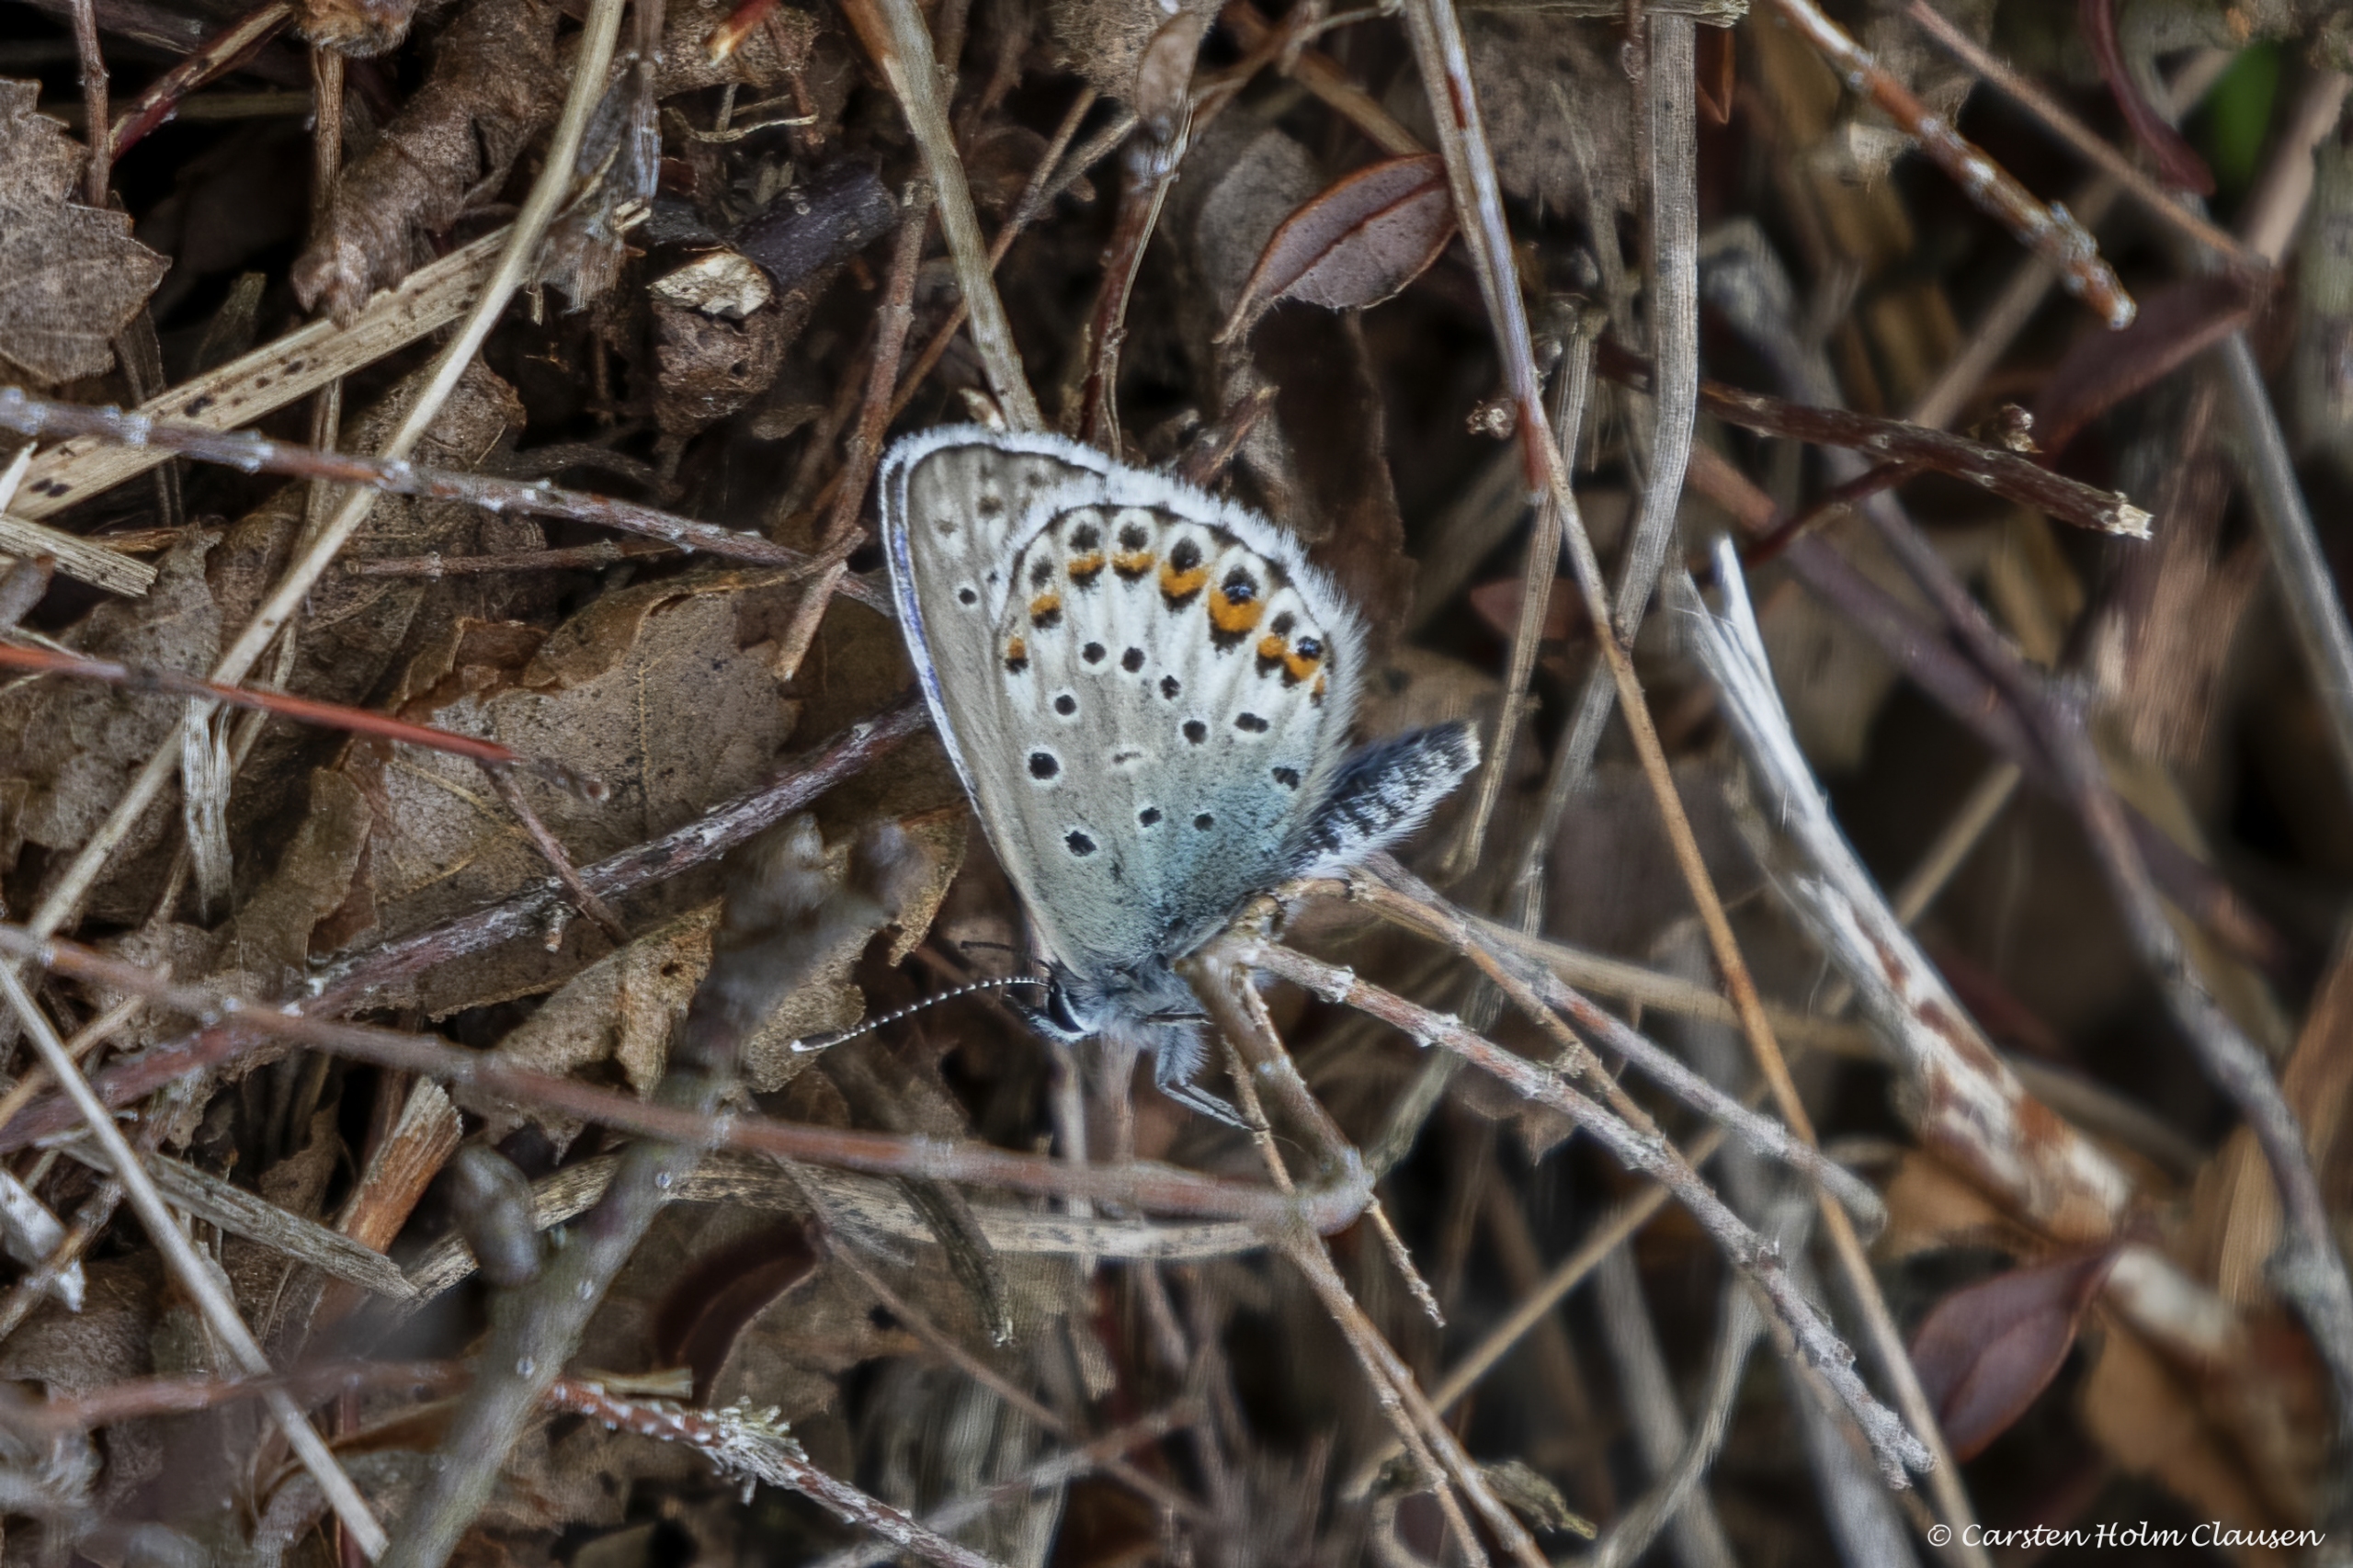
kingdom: Animalia
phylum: Arthropoda
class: Insecta
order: Lepidoptera
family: Lycaenidae
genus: Lycaeides
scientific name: Lycaeides idas
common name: Foranderlig blåfugl
